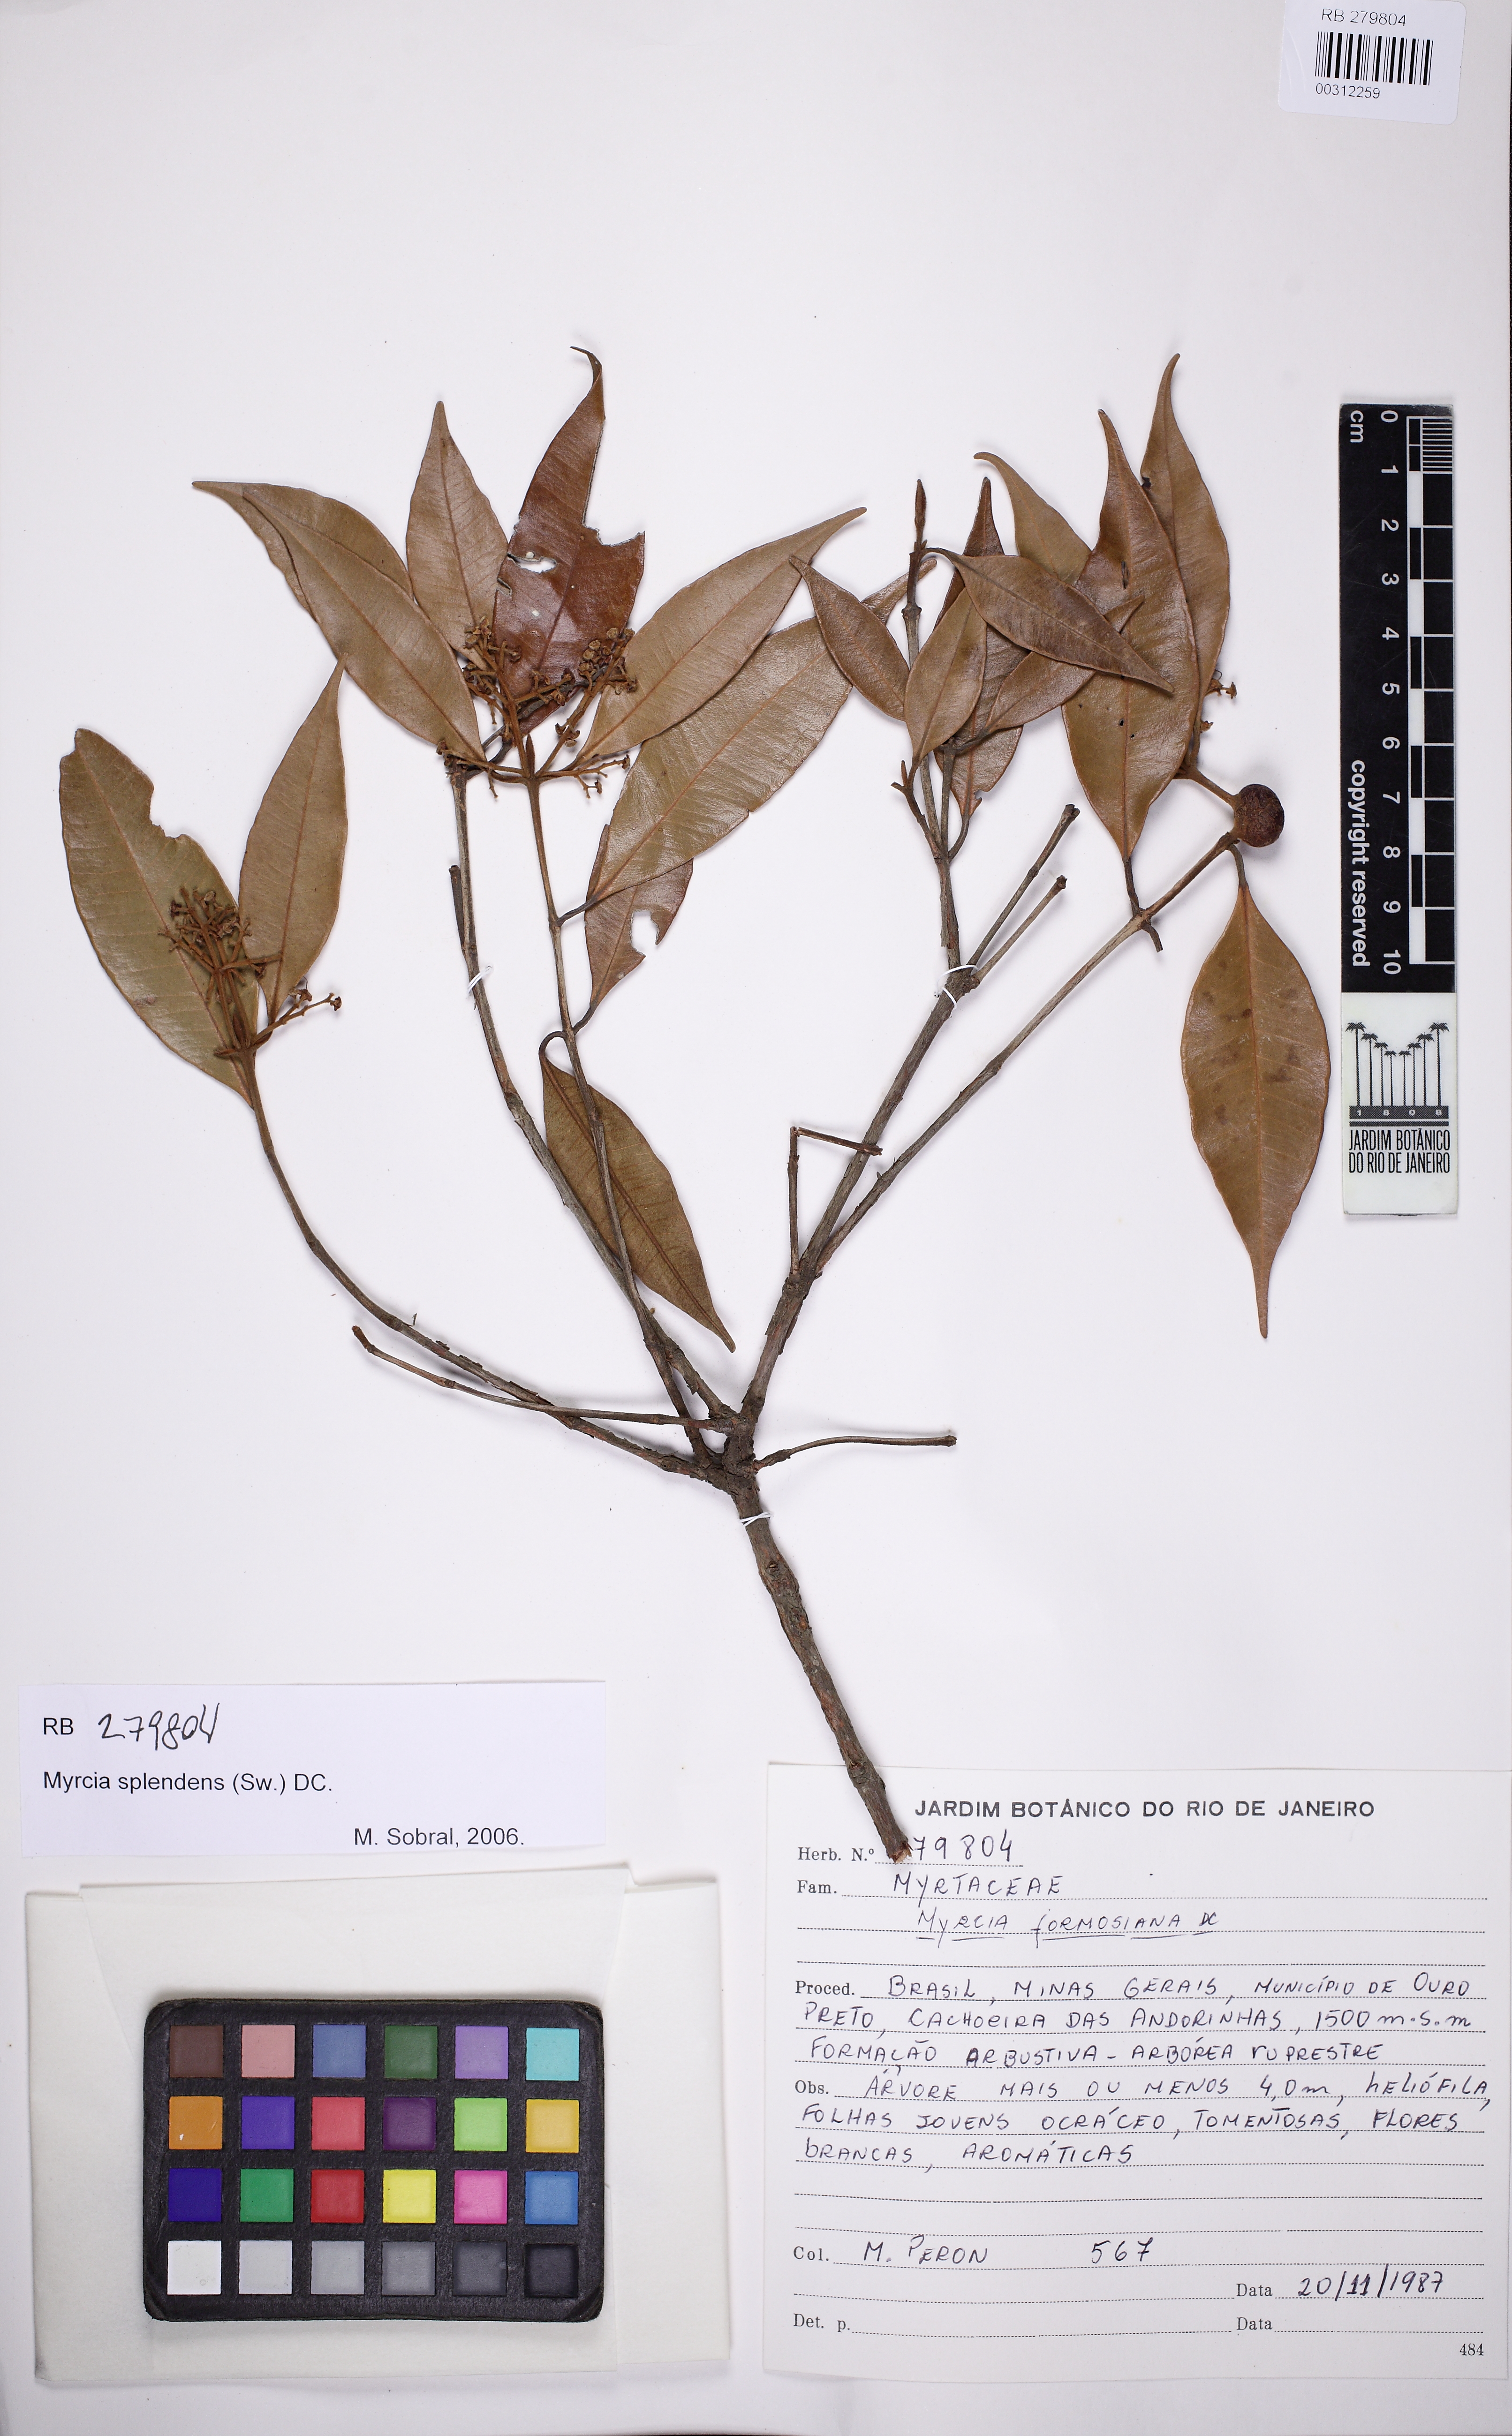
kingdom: Plantae
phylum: Tracheophyta
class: Liliopsida
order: Arecales
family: Arecaceae
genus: Geonoma
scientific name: Geonoma maxima
